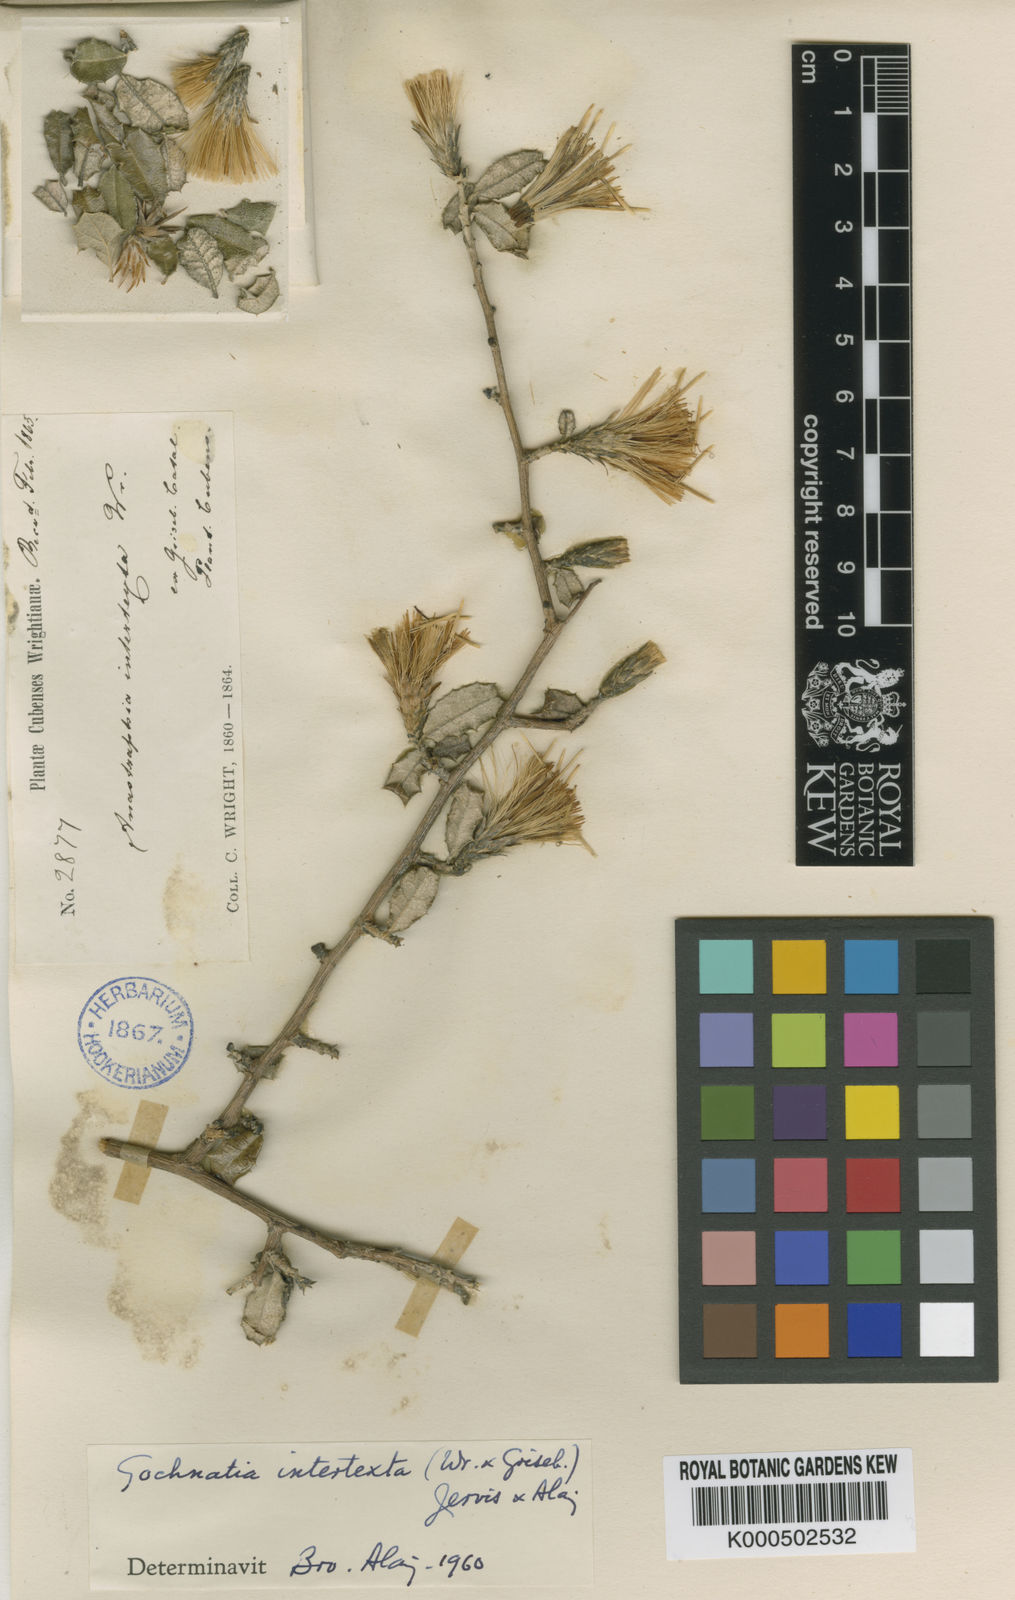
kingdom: Plantae
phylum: Tracheophyta
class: Magnoliopsida
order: Asterales
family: Asteraceae
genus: Anastraphia
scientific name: Anastraphia intertexta
